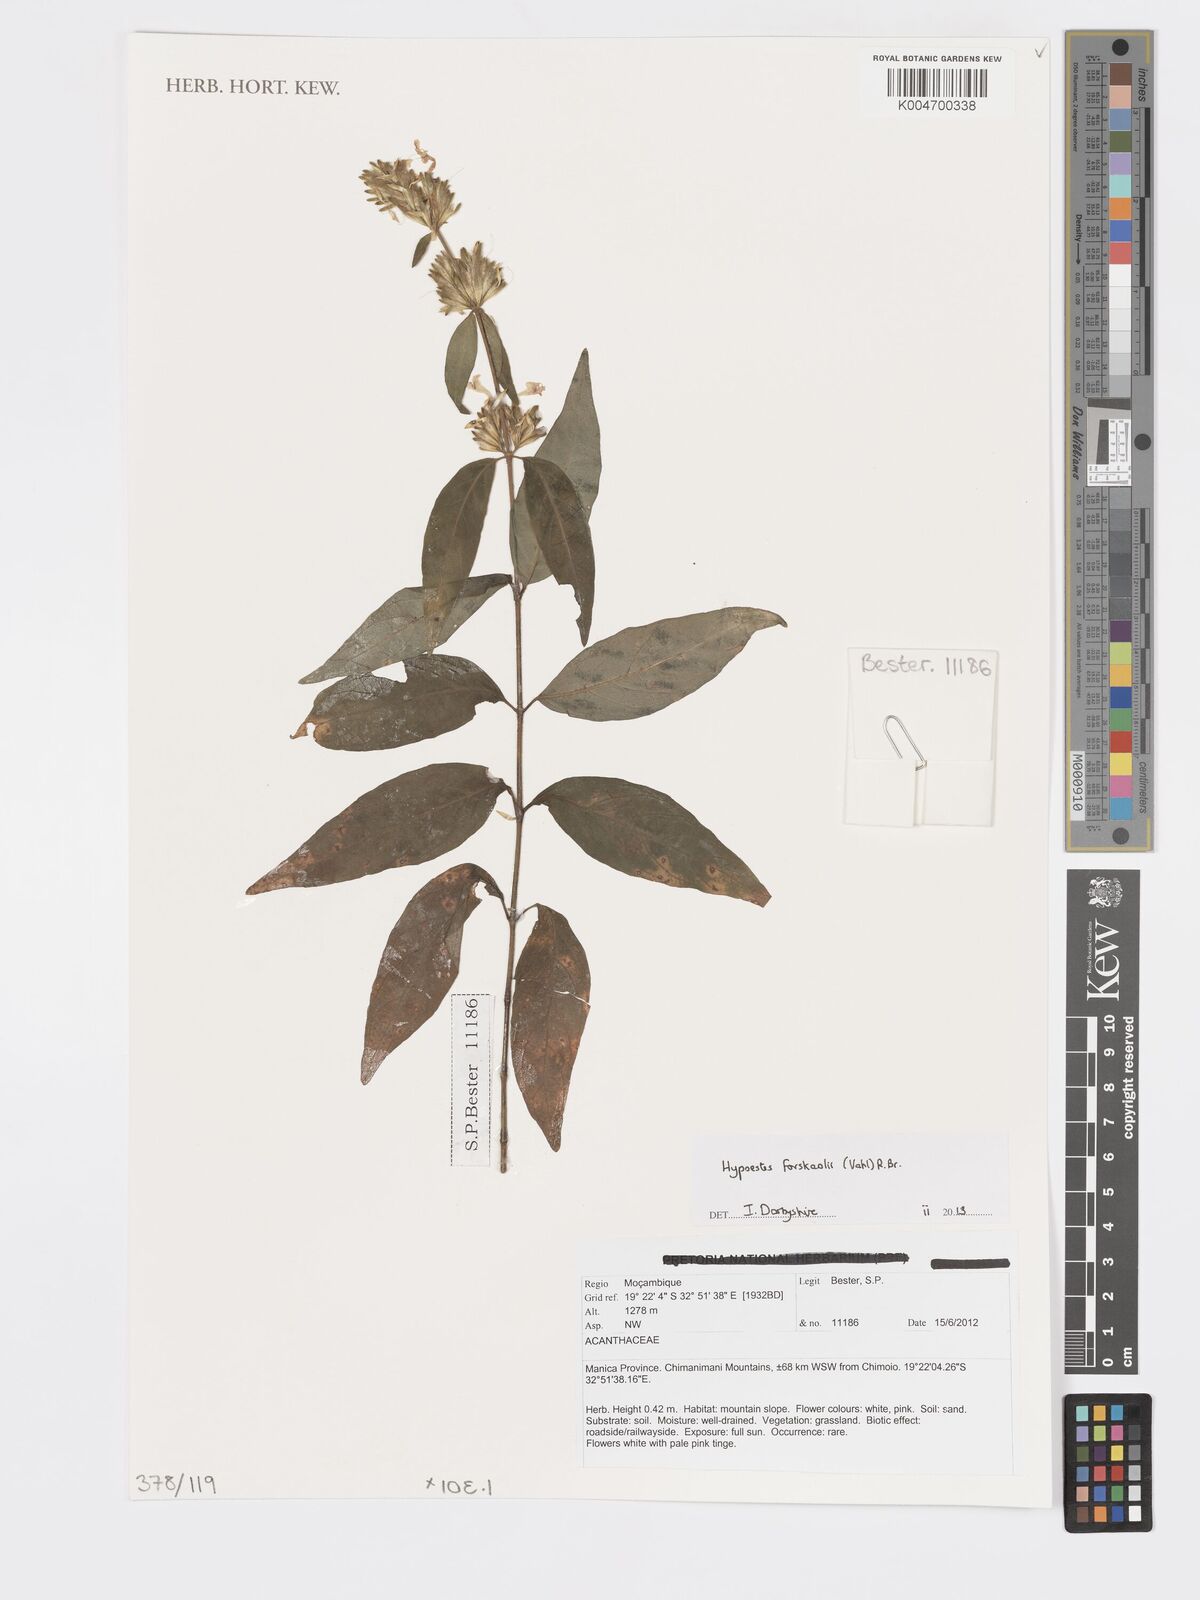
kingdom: Plantae
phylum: Tracheophyta
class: Magnoliopsida
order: Lamiales
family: Acanthaceae
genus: Hypoestes
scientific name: Hypoestes forskaolii
